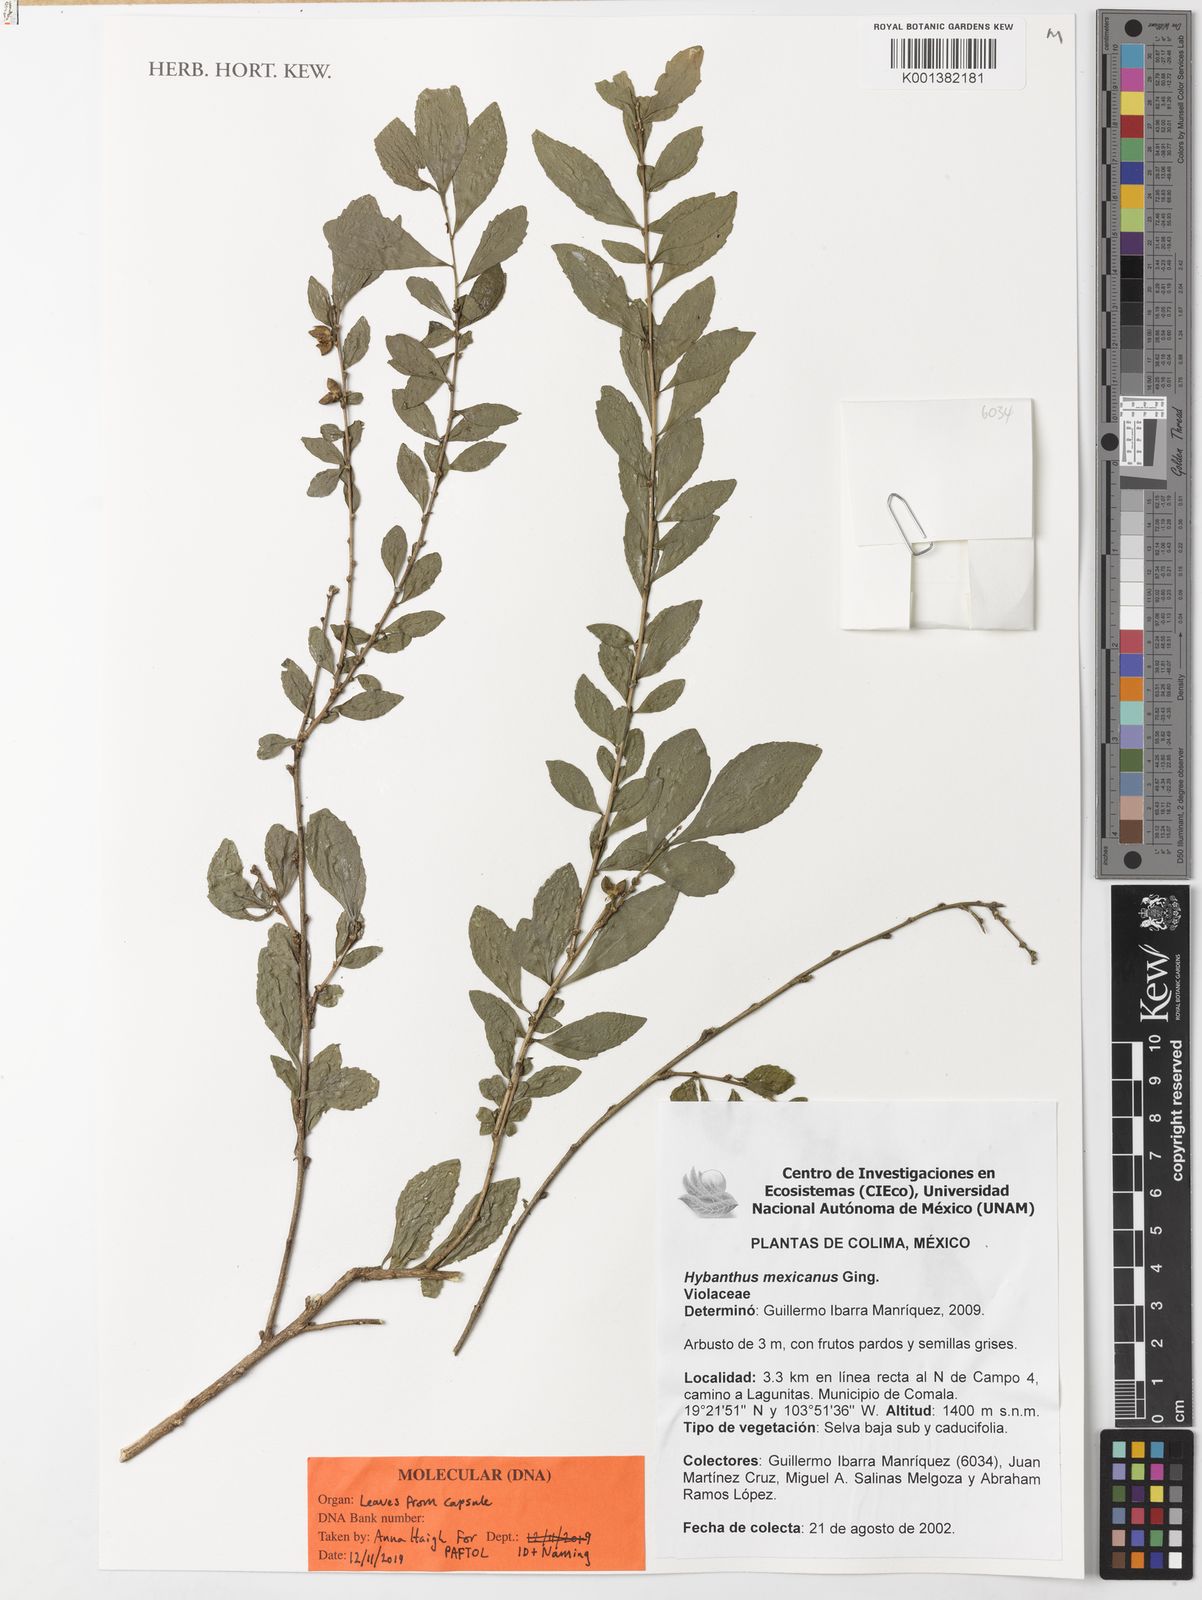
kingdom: Plantae
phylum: Tracheophyta
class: Magnoliopsida
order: Malpighiales
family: Violaceae
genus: Ixchelia
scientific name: Ixchelia mexicana
